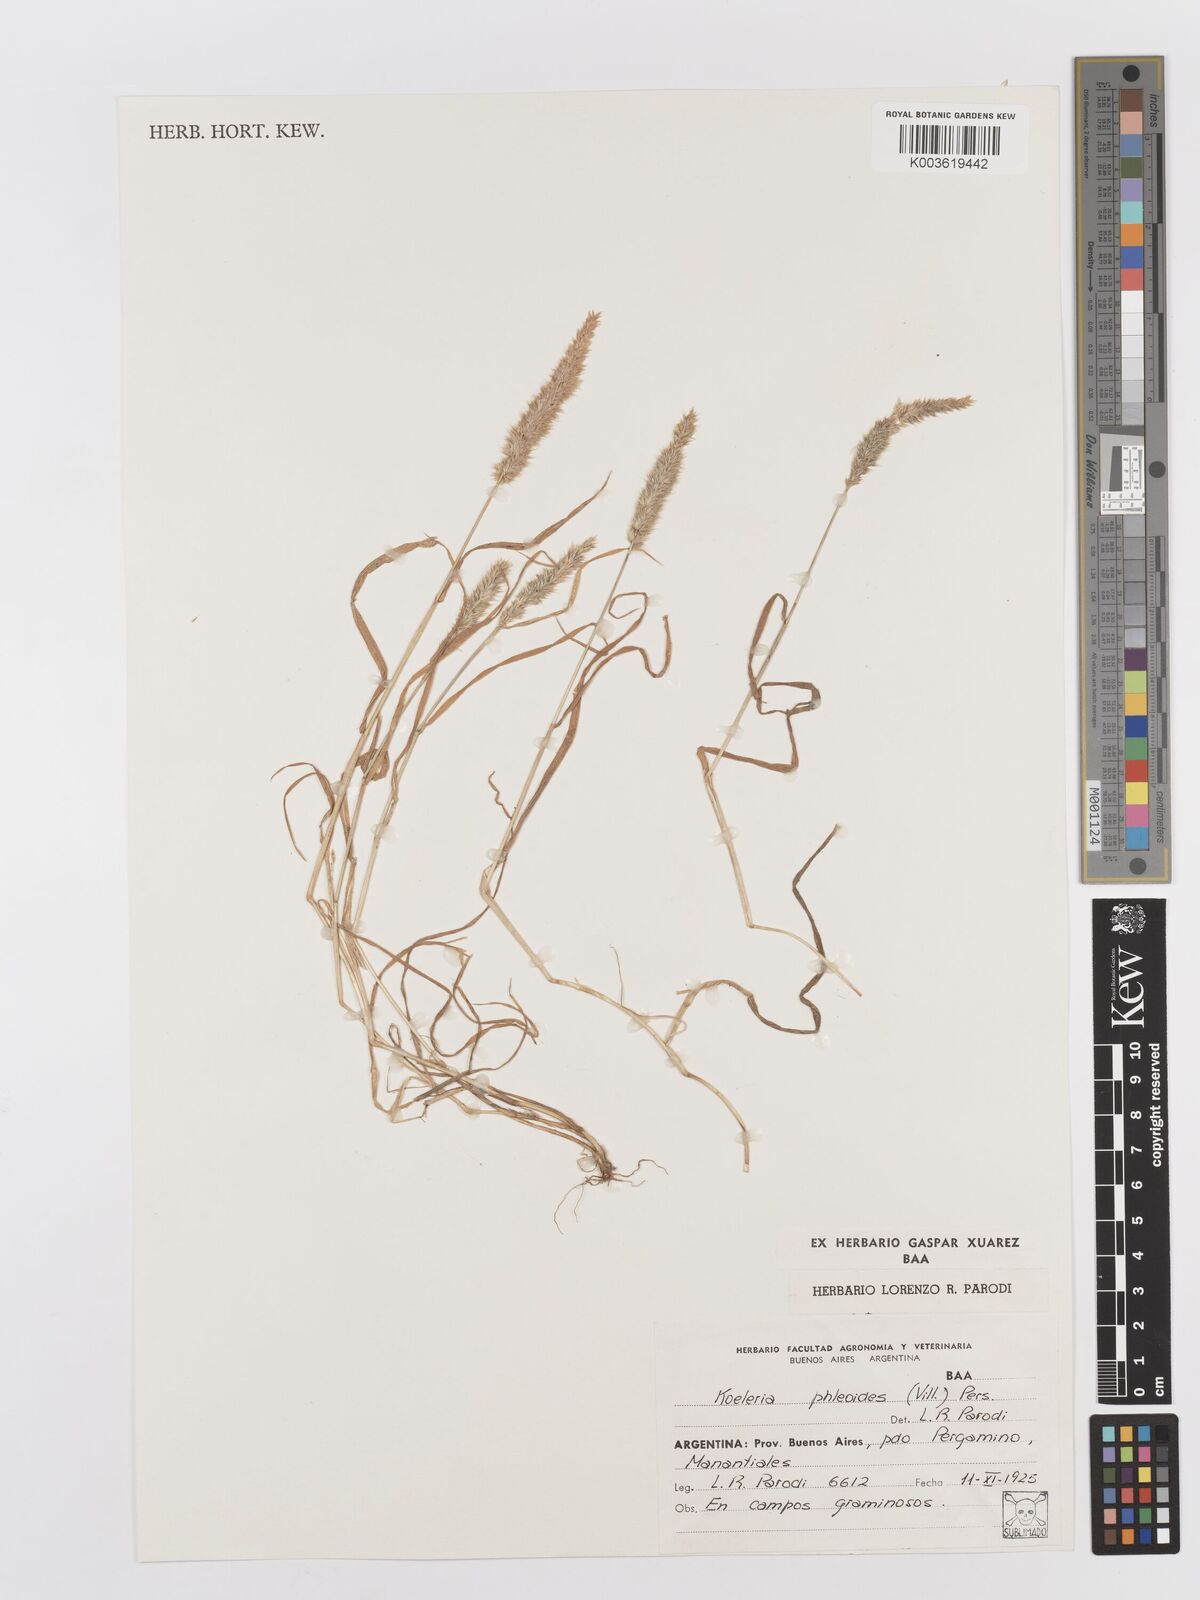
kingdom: Plantae
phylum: Tracheophyta
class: Liliopsida
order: Poales
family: Poaceae
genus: Rostraria
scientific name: Rostraria cristata
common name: Mediterranean hair-grass
